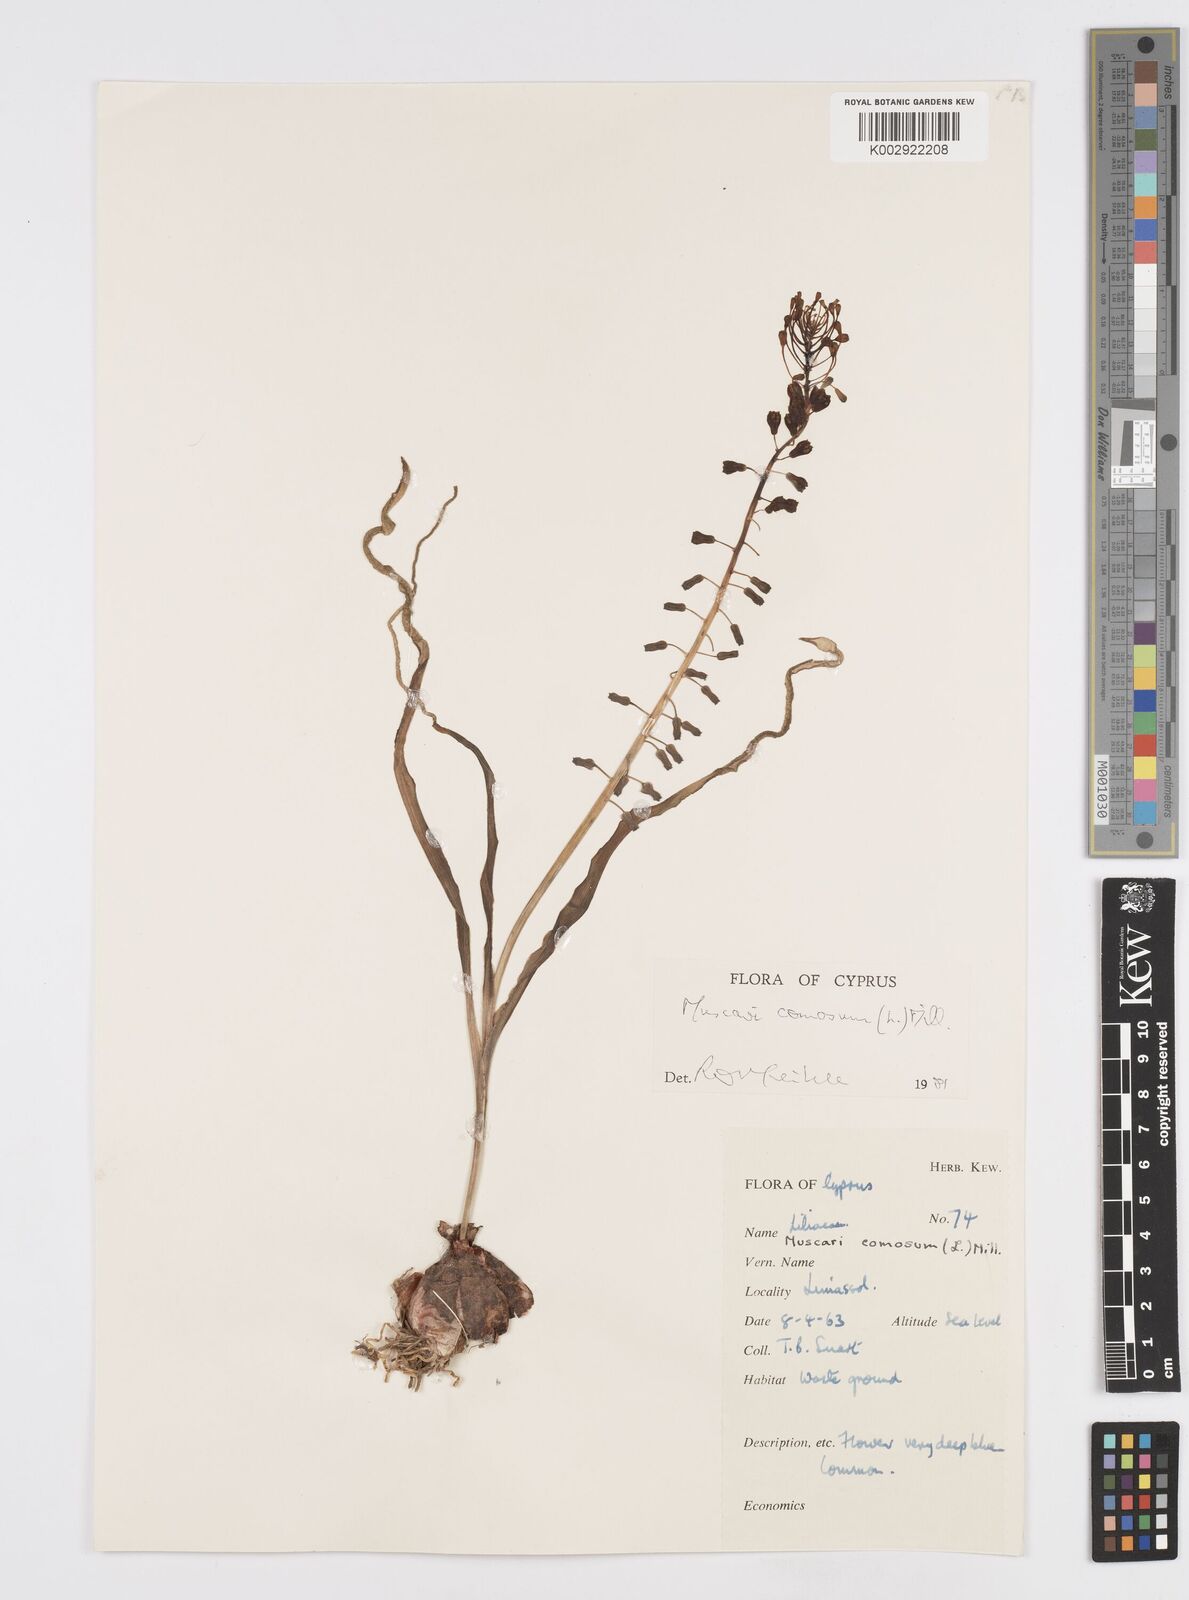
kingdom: Plantae
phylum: Tracheophyta
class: Liliopsida
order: Asparagales
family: Asparagaceae
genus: Muscari
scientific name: Muscari comosum
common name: Tassel hyacinth
